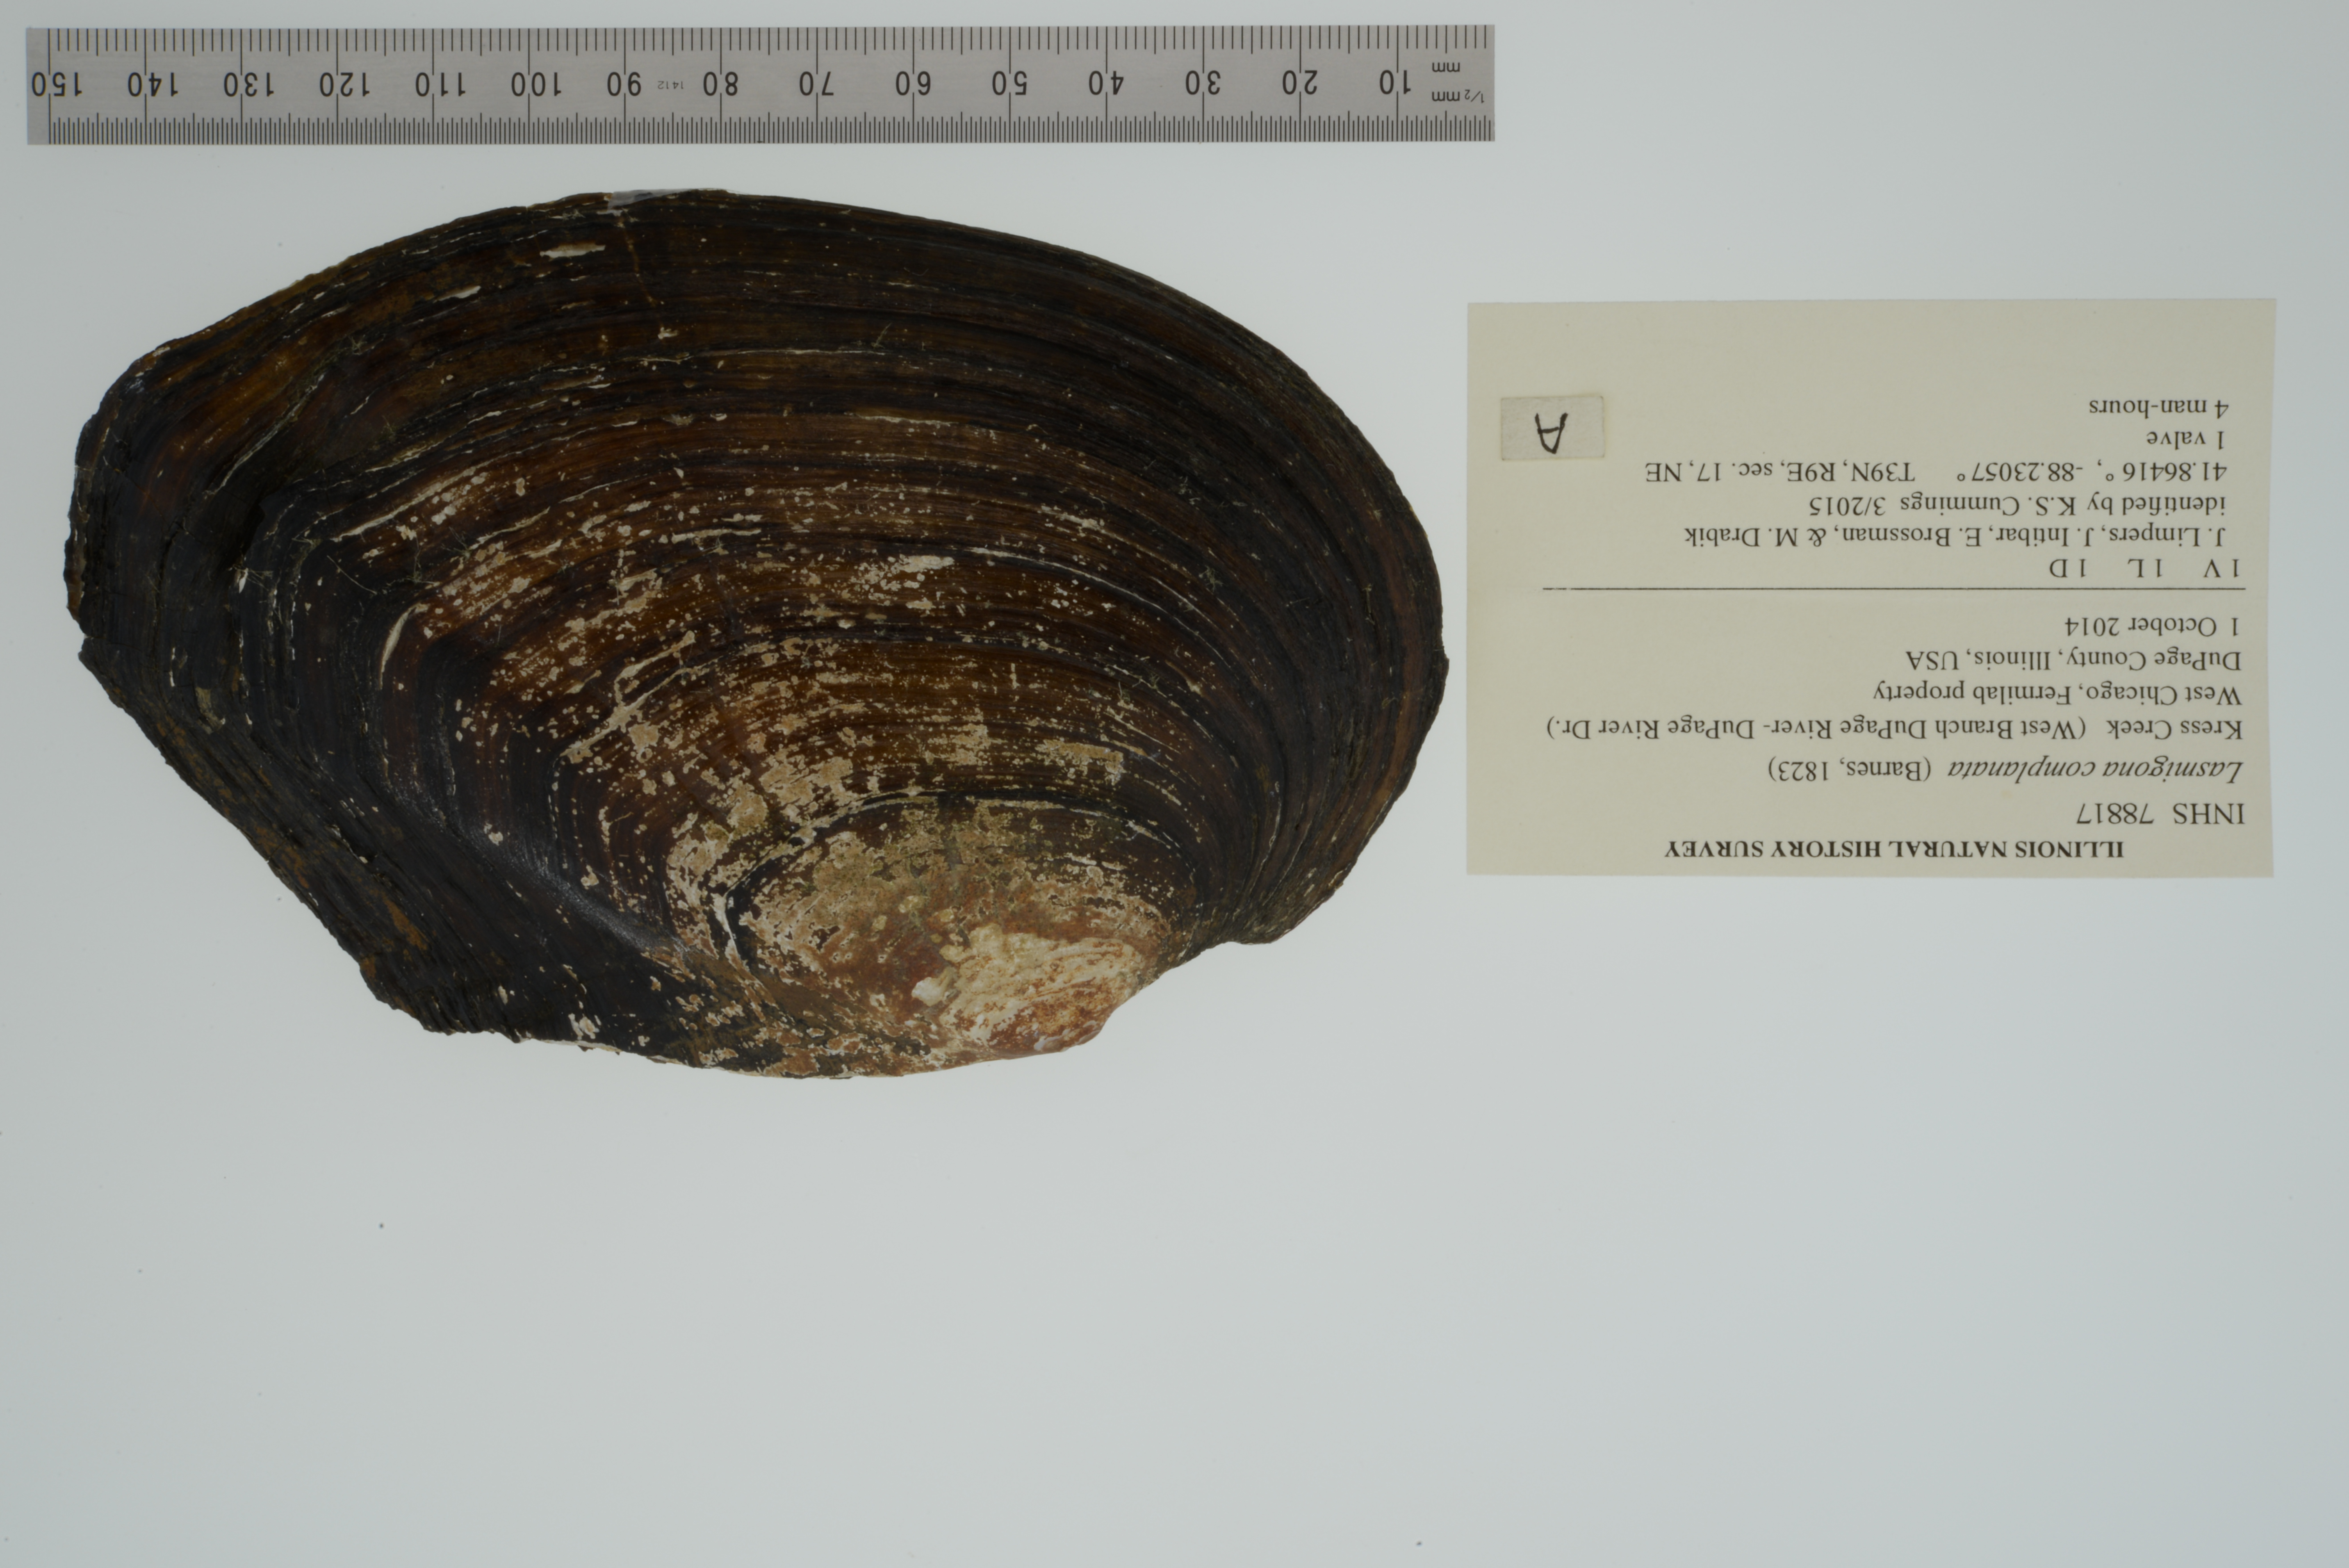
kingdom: Animalia
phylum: Mollusca
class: Bivalvia
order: Unionida
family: Unionidae
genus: Lasmigona
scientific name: Lasmigona complanata
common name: White heelsplitter
